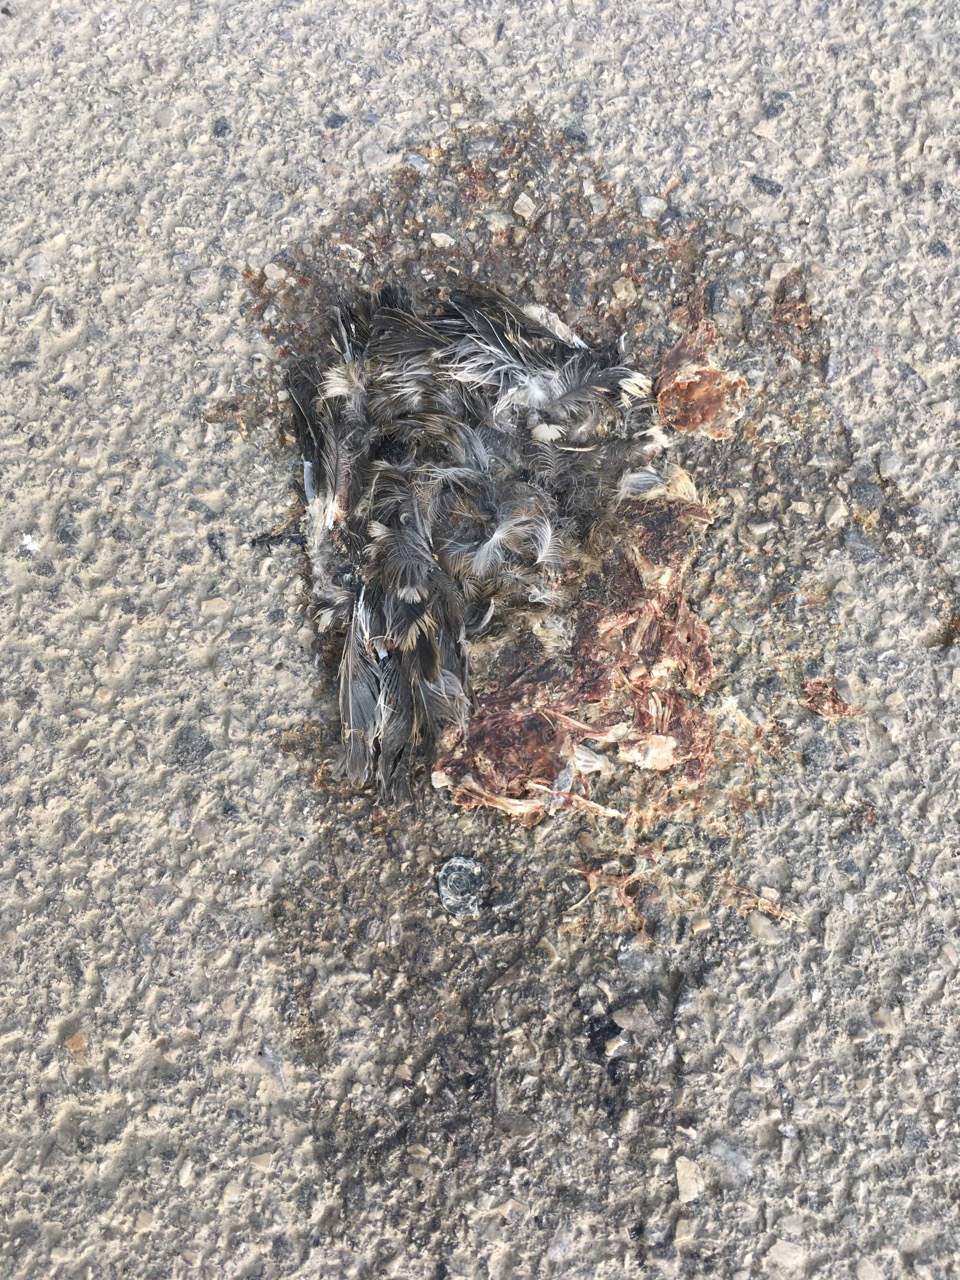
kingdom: Animalia
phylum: Chordata
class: Aves
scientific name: Aves
